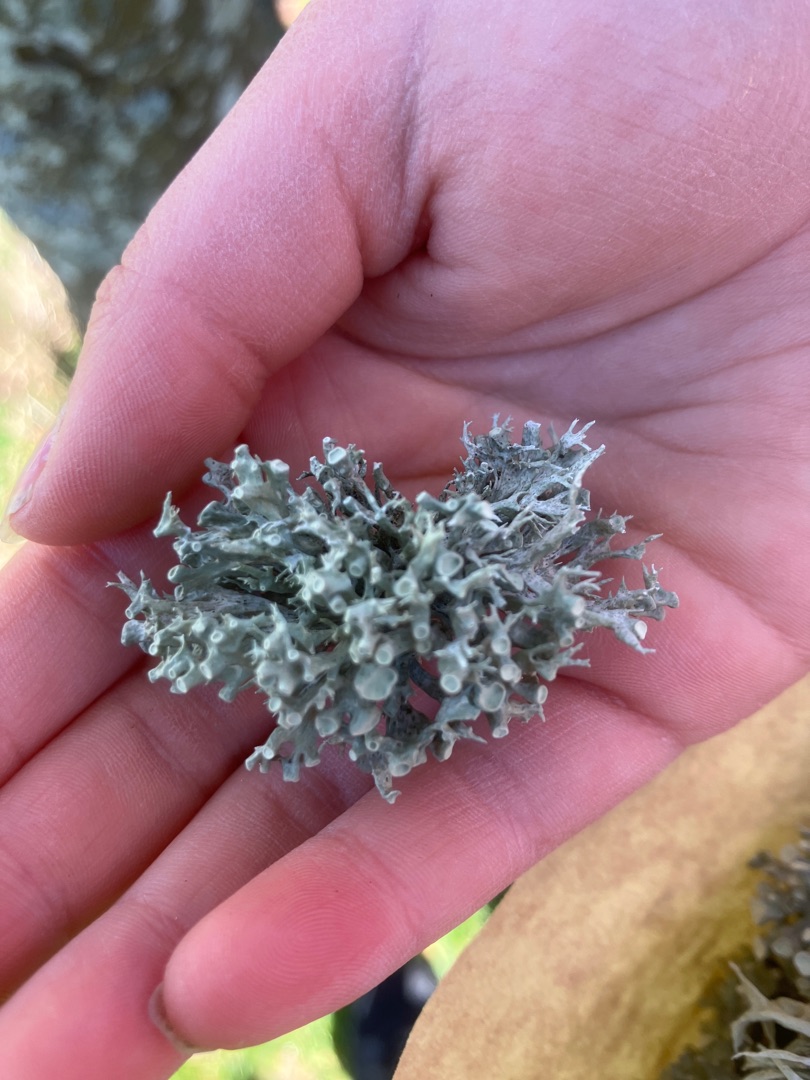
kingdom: Fungi
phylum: Ascomycota
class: Lecanoromycetes
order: Lecanorales
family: Ramalinaceae
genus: Ramalina
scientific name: Ramalina fastigiata
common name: Tue-grenlav
